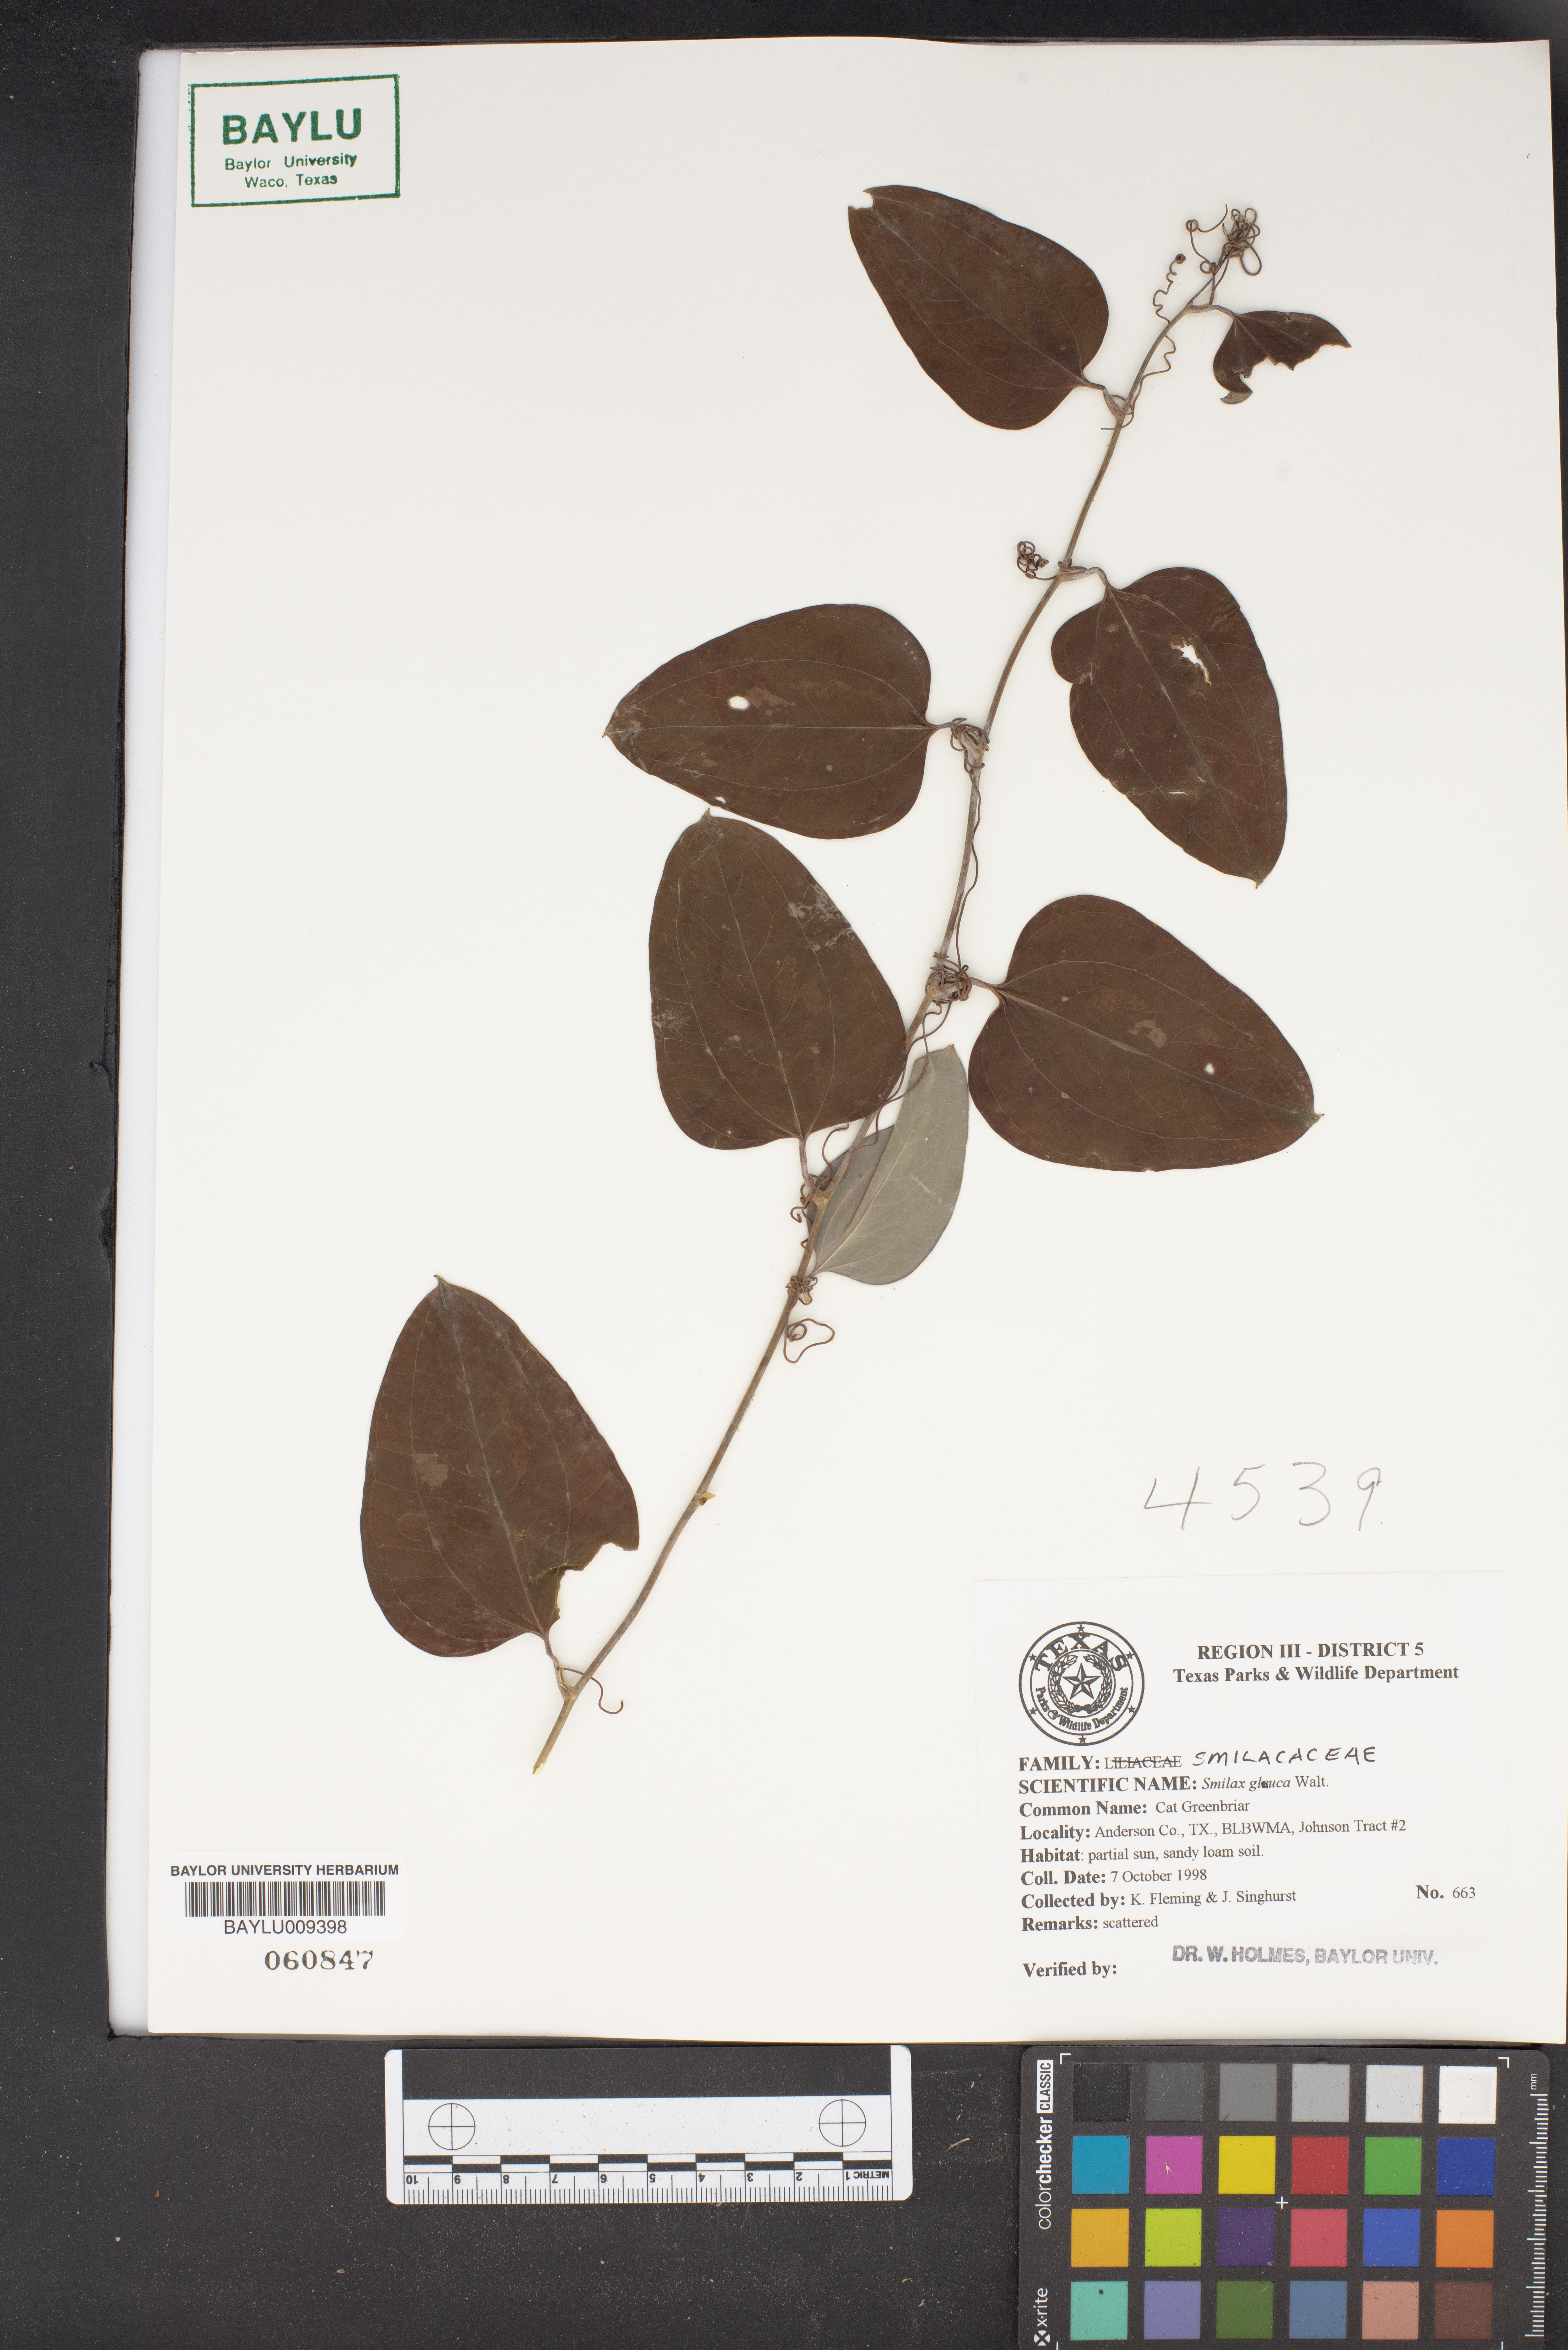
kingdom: Plantae
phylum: Tracheophyta
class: Liliopsida
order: Liliales
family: Smilacaceae
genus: Smilax
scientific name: Smilax glauca
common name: Cat greenbrier
